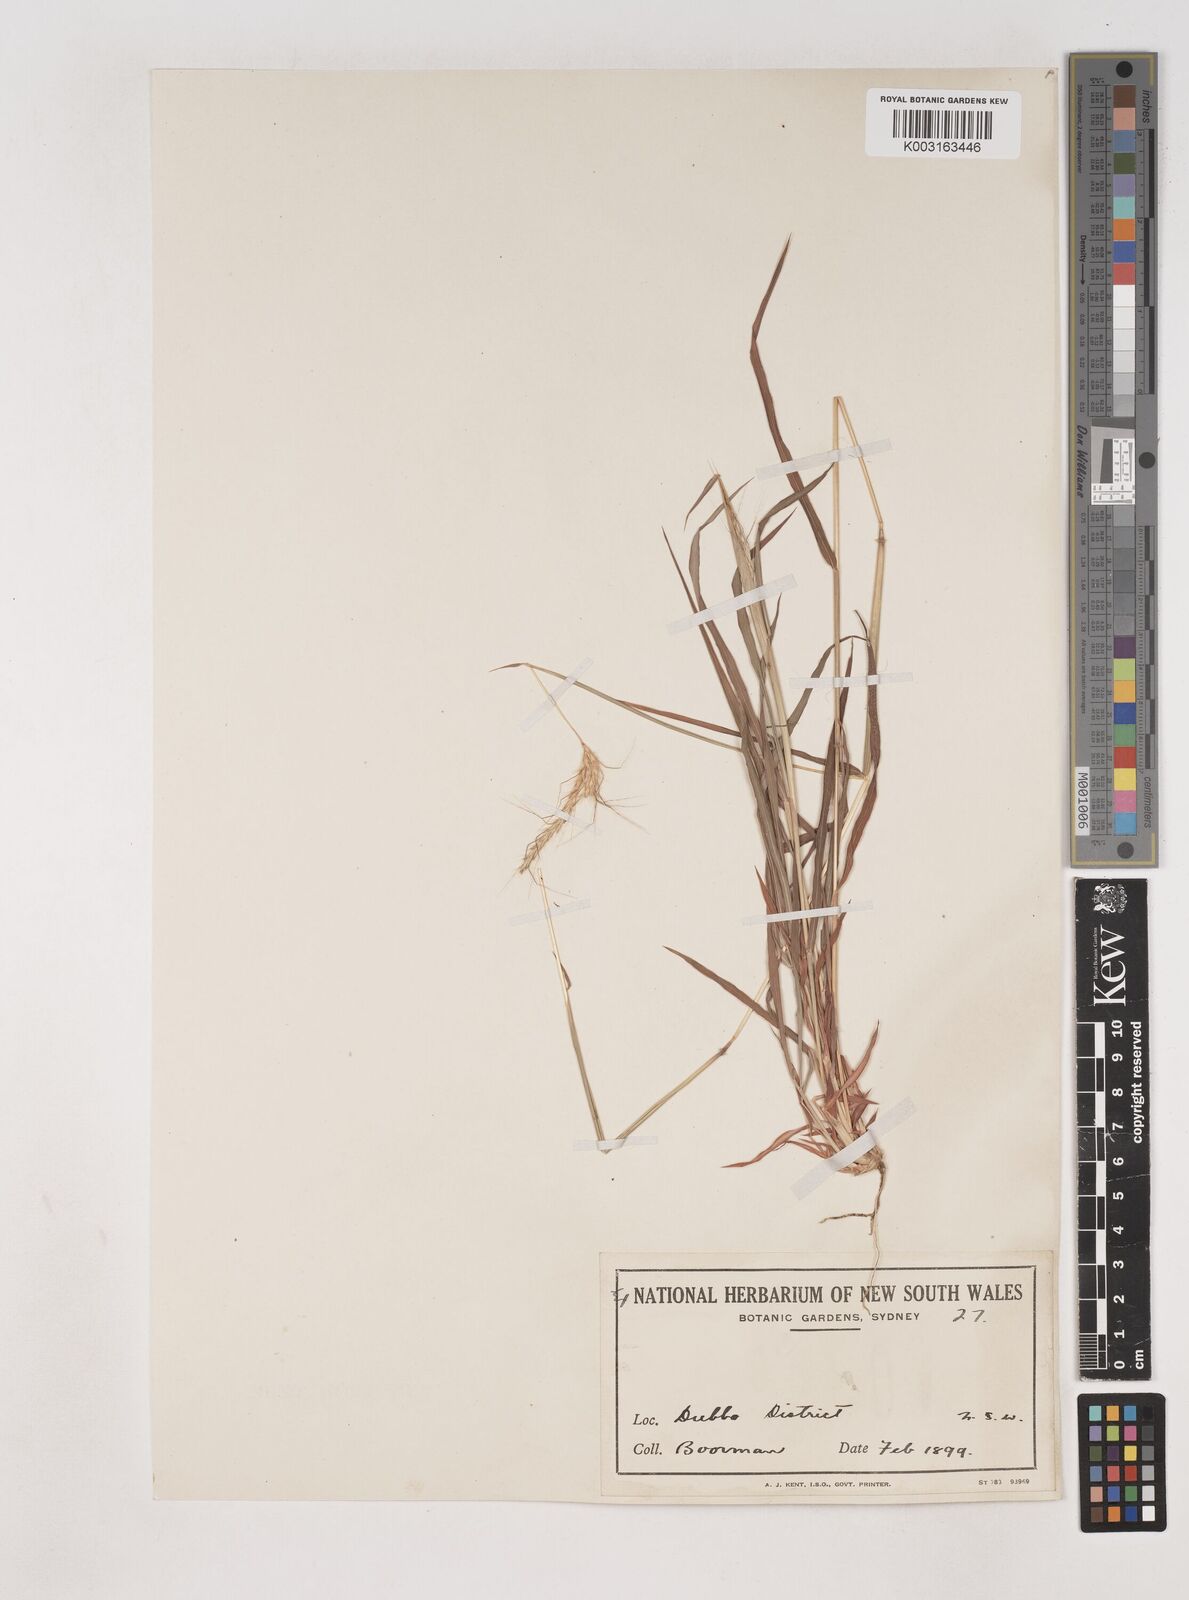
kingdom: Plantae
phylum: Tracheophyta
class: Liliopsida
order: Poales
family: Poaceae
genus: Dichanthium
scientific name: Dichanthium sericeum
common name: Silky bluestem
